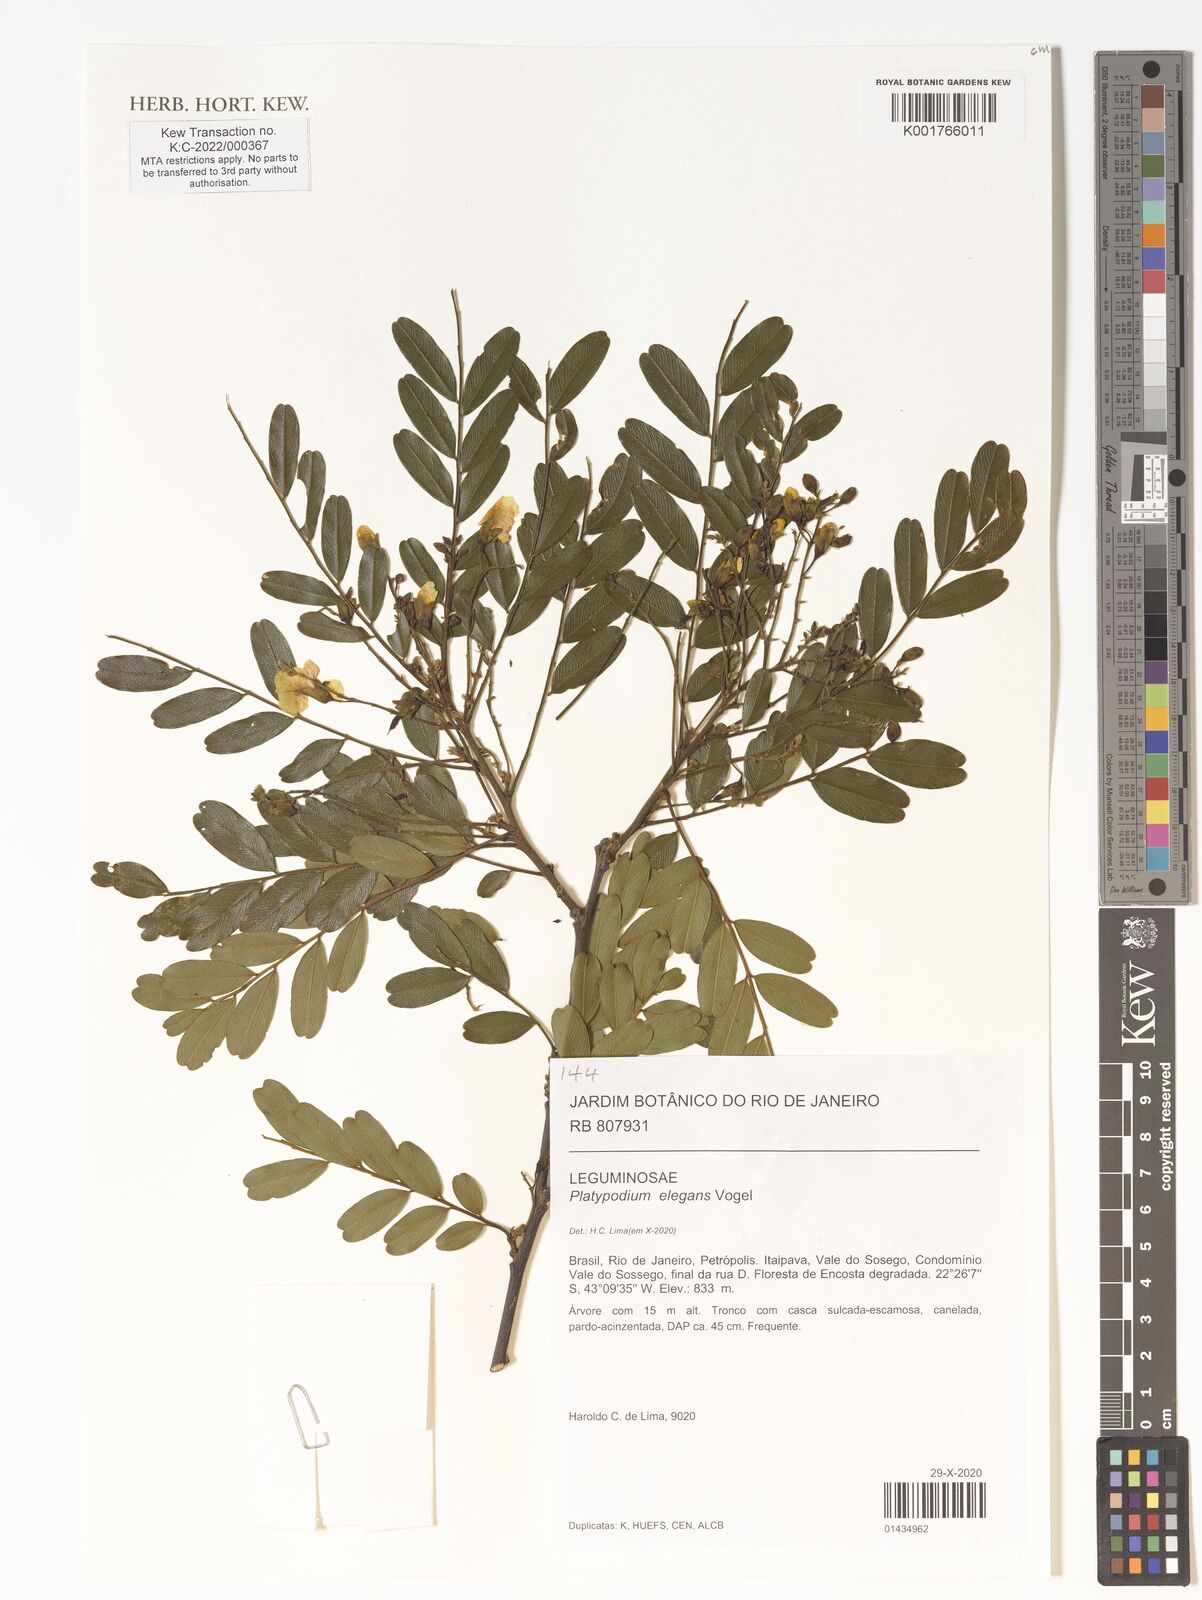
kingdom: Plantae
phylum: Tracheophyta
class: Magnoliopsida
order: Fabales
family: Fabaceae
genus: Platypodium
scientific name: Platypodium elegans
